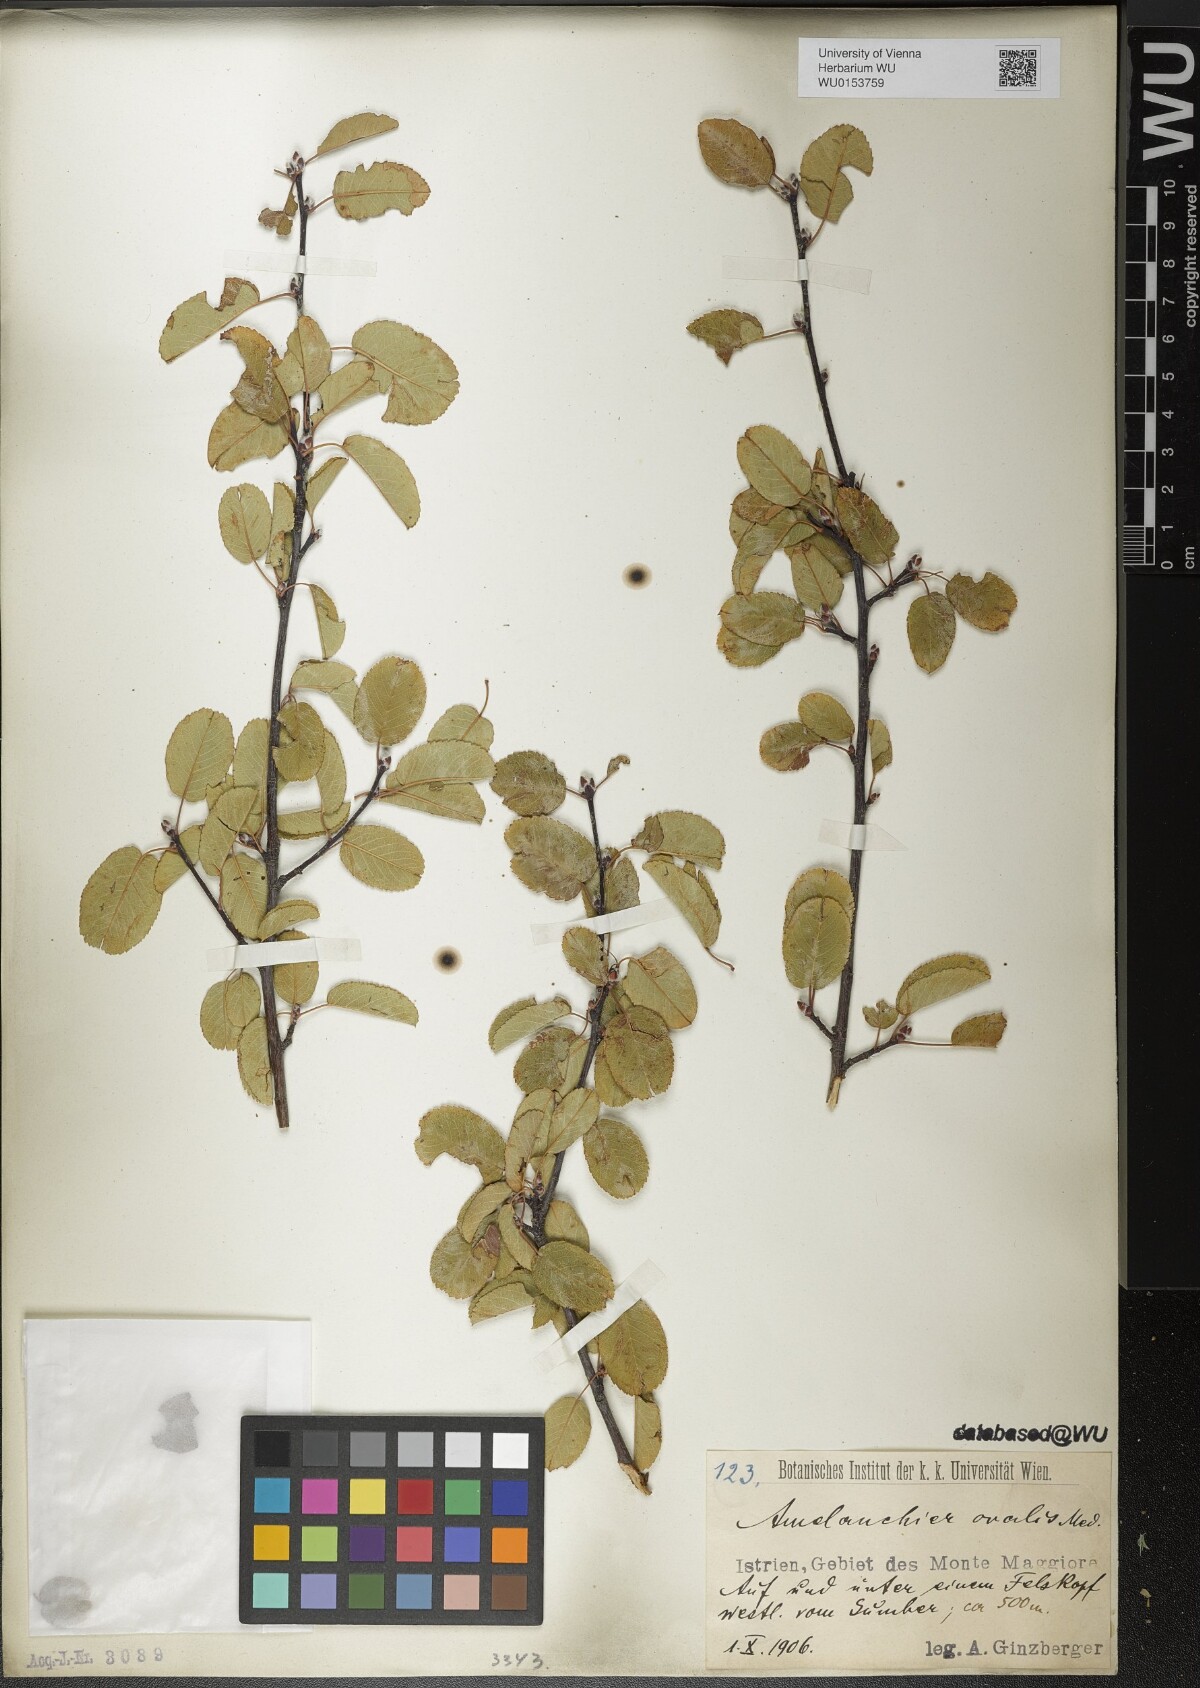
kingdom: Plantae
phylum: Tracheophyta
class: Magnoliopsida
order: Rosales
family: Rosaceae
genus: Amelanchier
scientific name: Amelanchier ovalis
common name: Serviceberry
